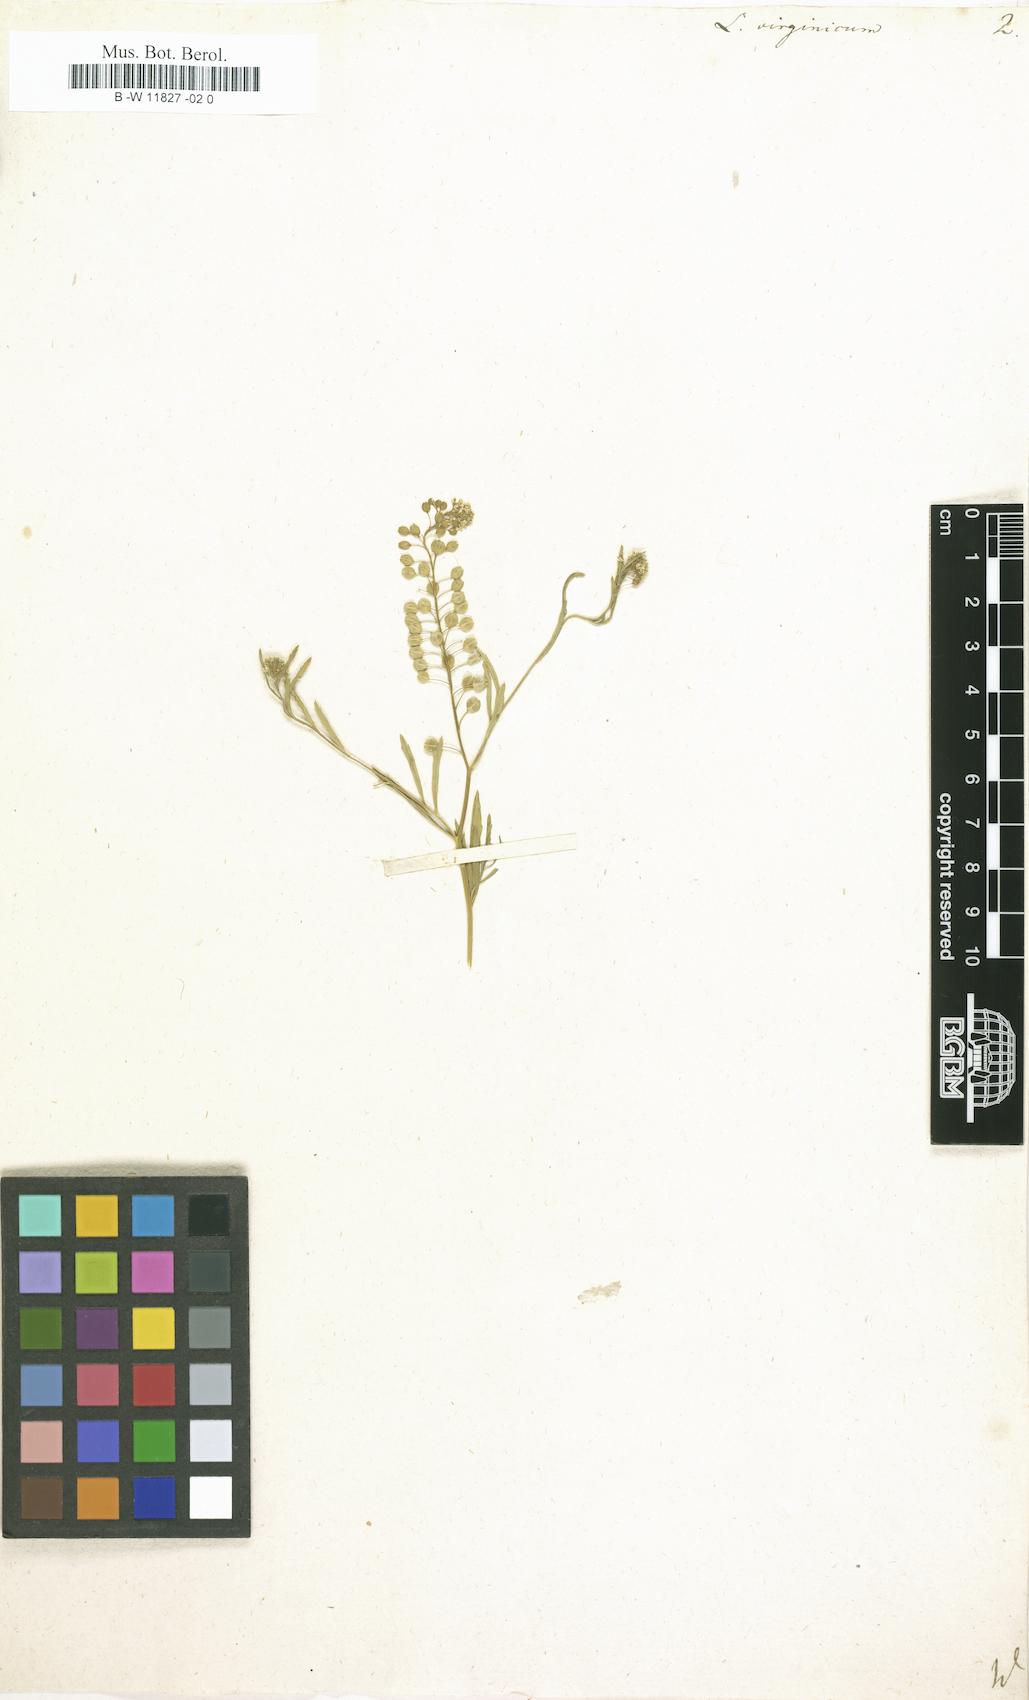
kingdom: Plantae
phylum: Tracheophyta
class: Magnoliopsida
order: Brassicales
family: Brassicaceae
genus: Lepidium
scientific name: Lepidium virginicum
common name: Least pepperwort
